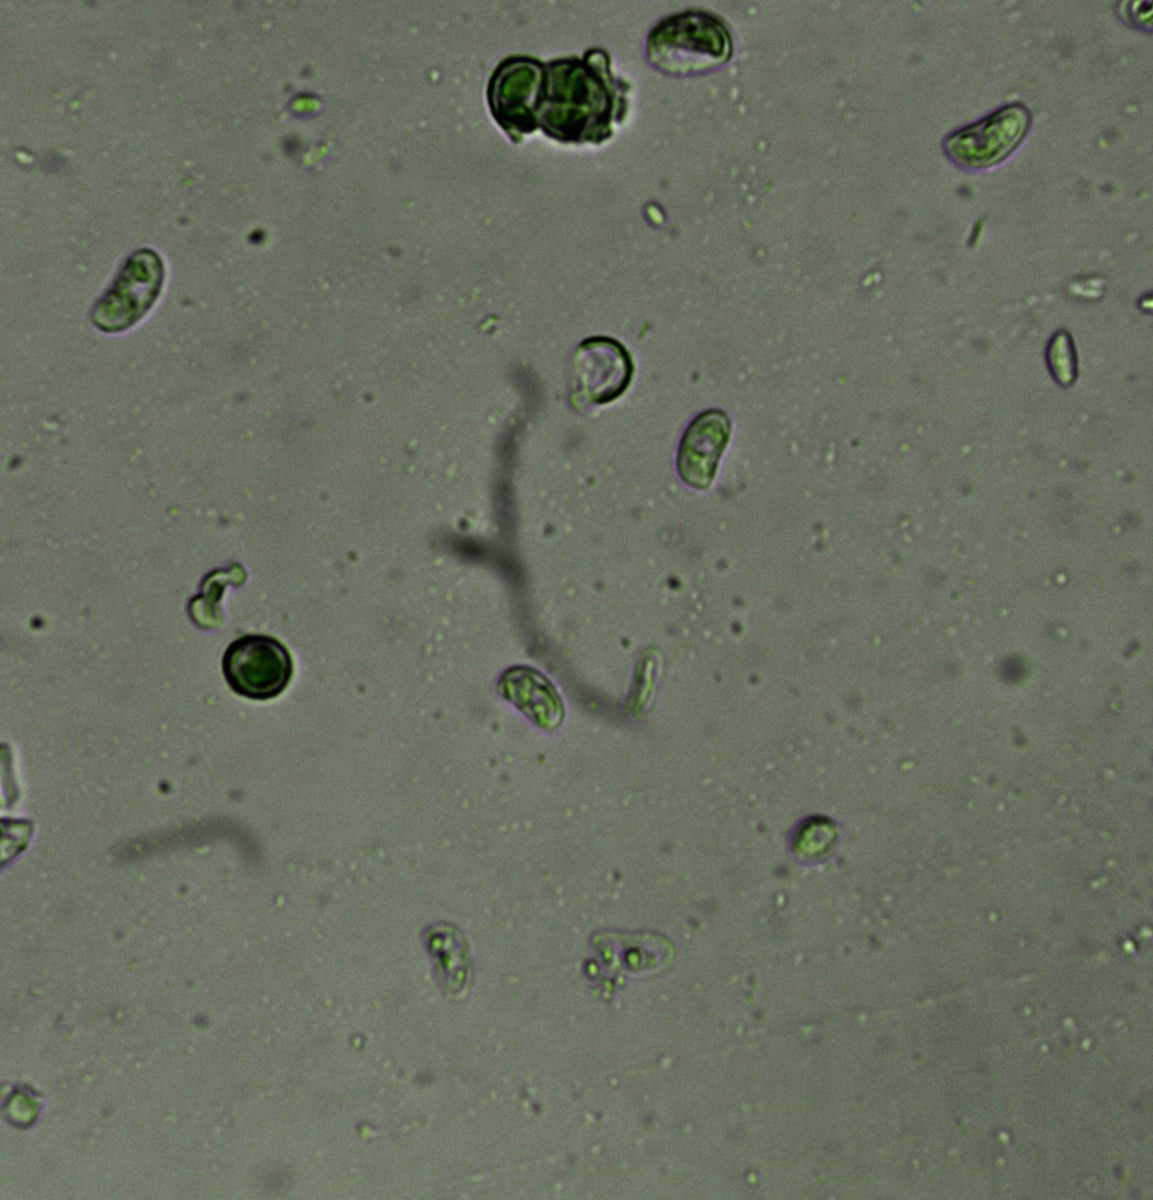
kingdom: Fungi
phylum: Basidiomycota
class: Agaricomycetes
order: Hymenochaetales
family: Rickenellaceae
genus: Peniophorella
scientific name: Peniophorella praetermissa
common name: almindelig kalkskind
